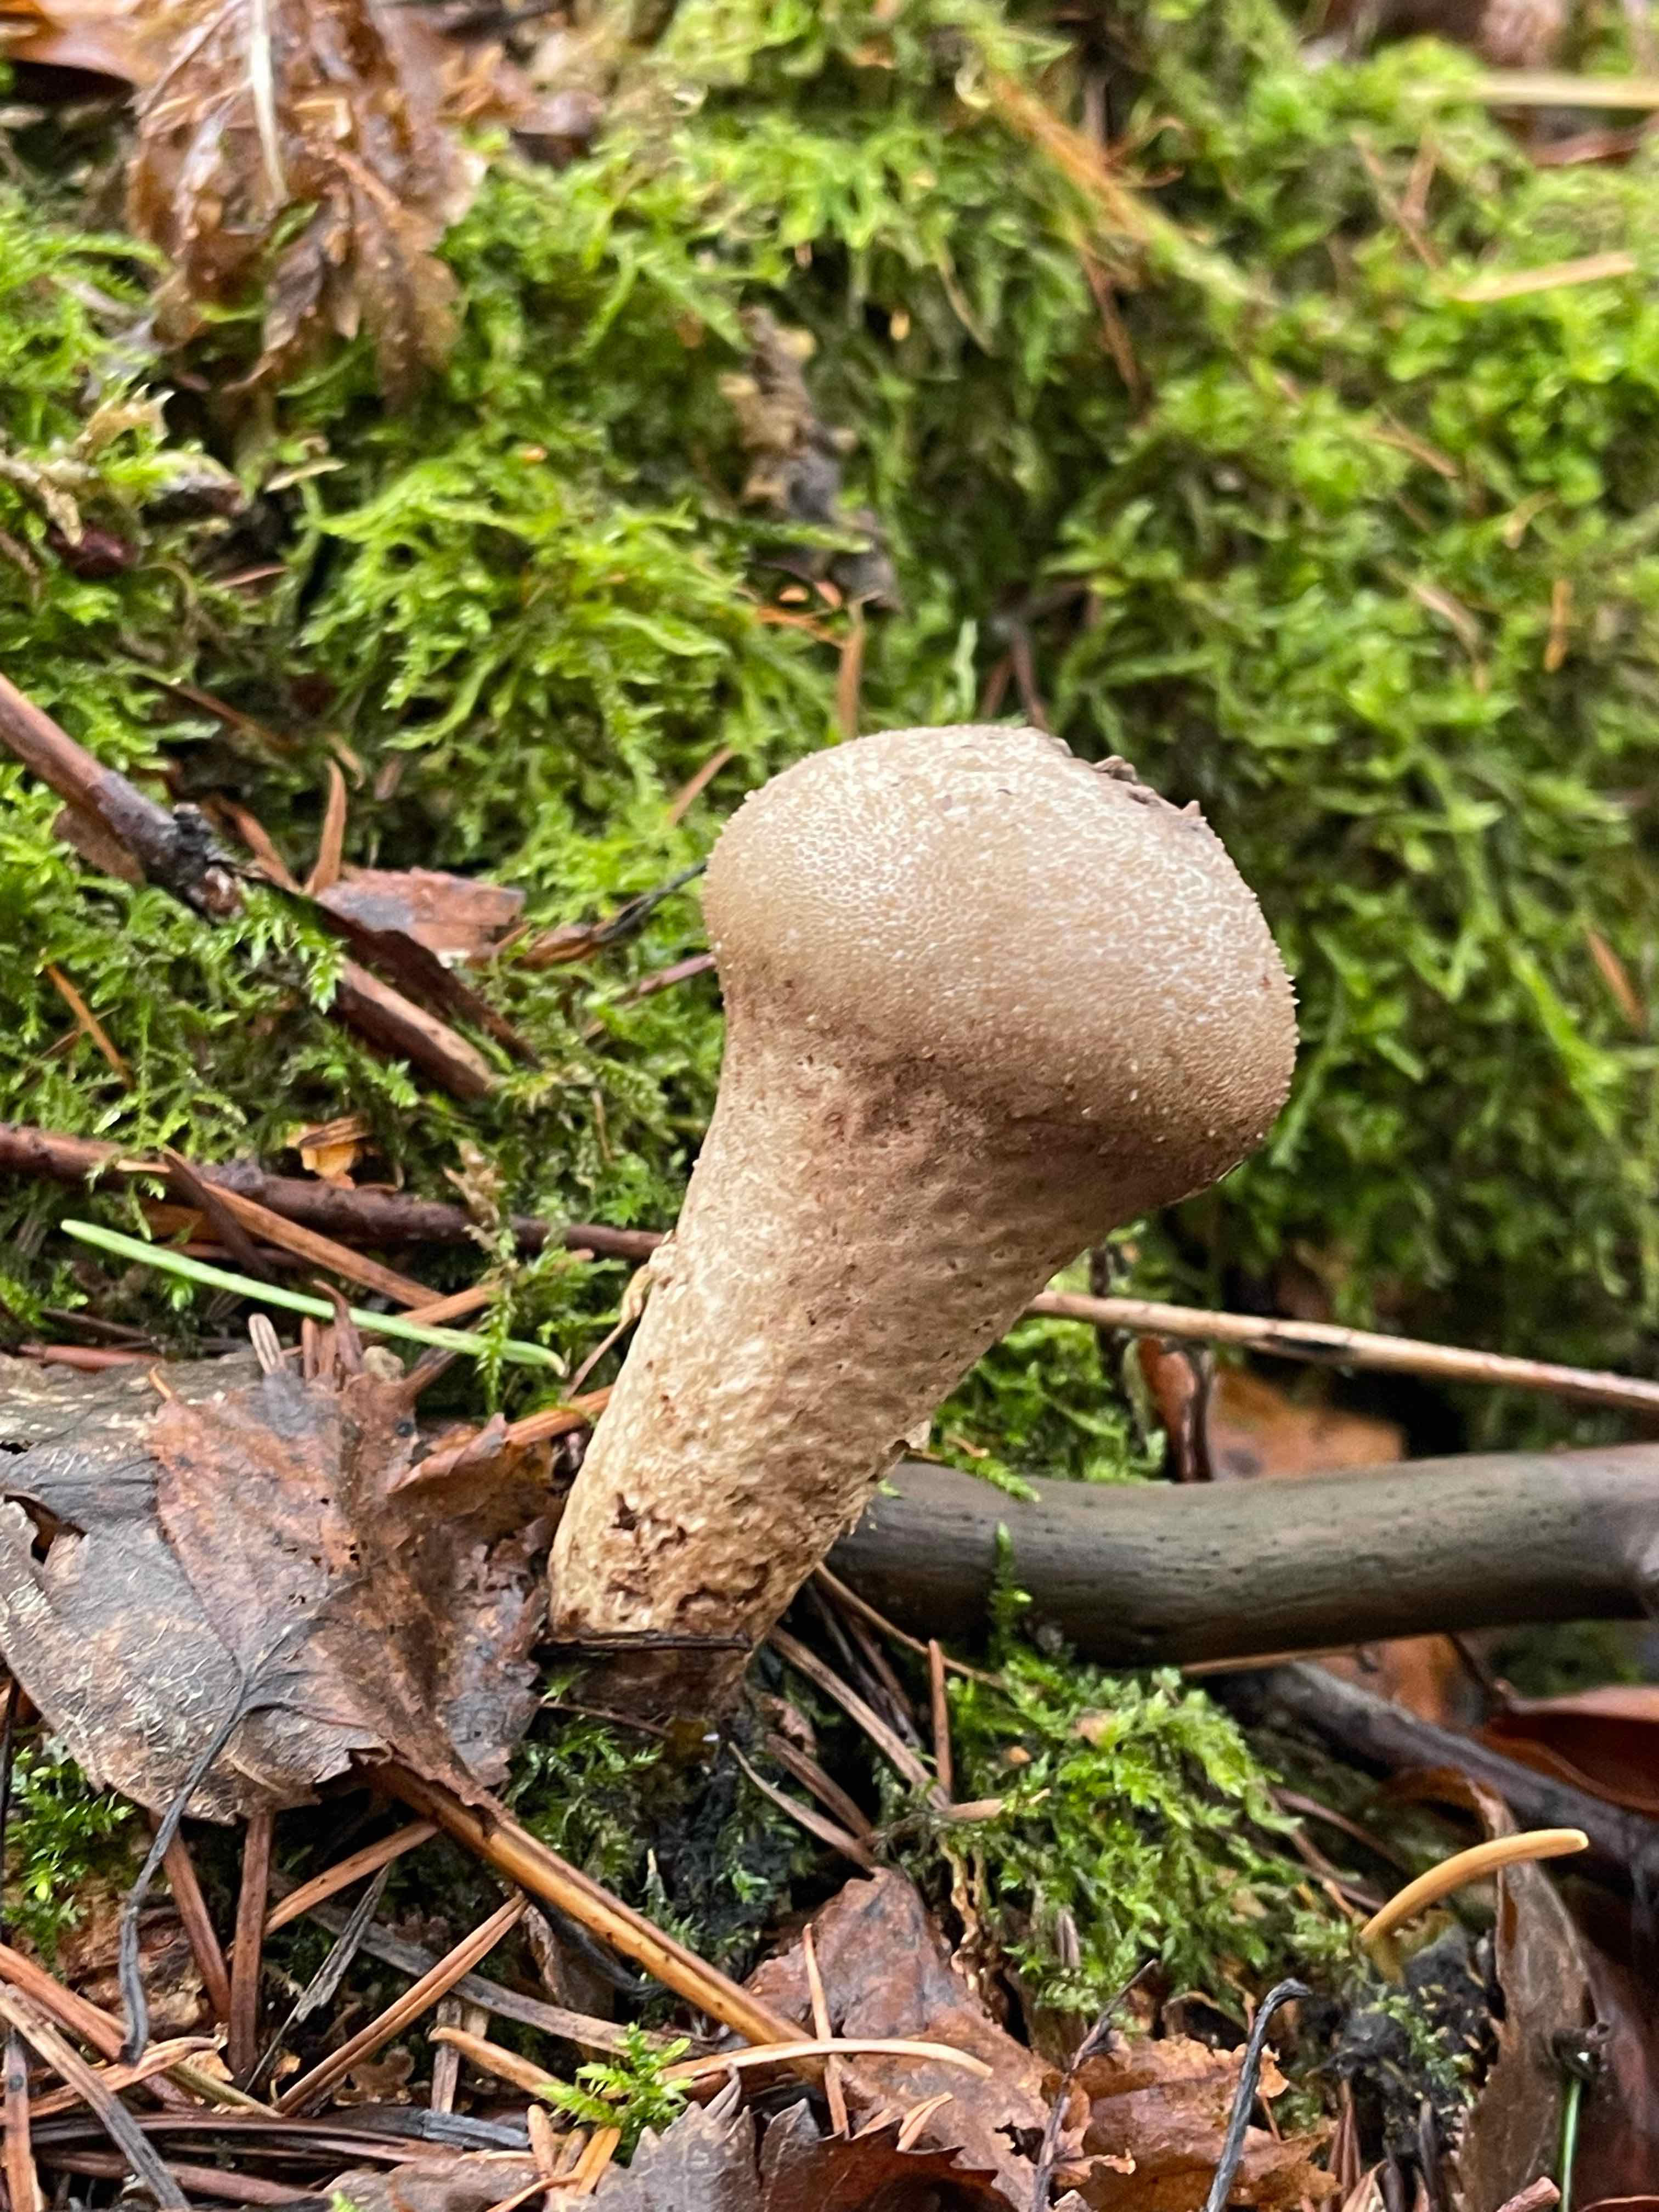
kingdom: Fungi
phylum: Basidiomycota
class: Agaricomycetes
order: Agaricales
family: Agaricaceae
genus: Lycoperdon
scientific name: Lycoperdon
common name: støvbold
